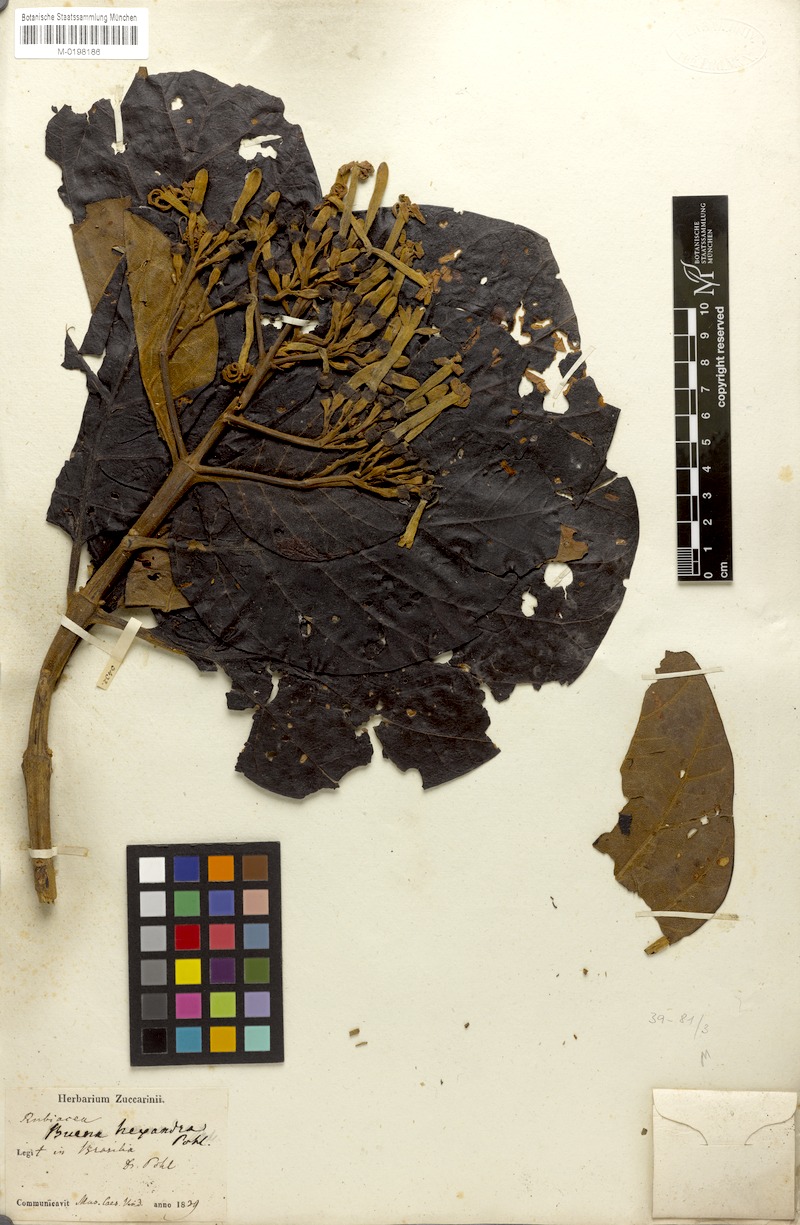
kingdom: Plantae
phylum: Tracheophyta
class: Magnoliopsida
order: Gentianales
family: Rubiaceae
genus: Ladenbergia
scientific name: Ladenbergia hexandra
